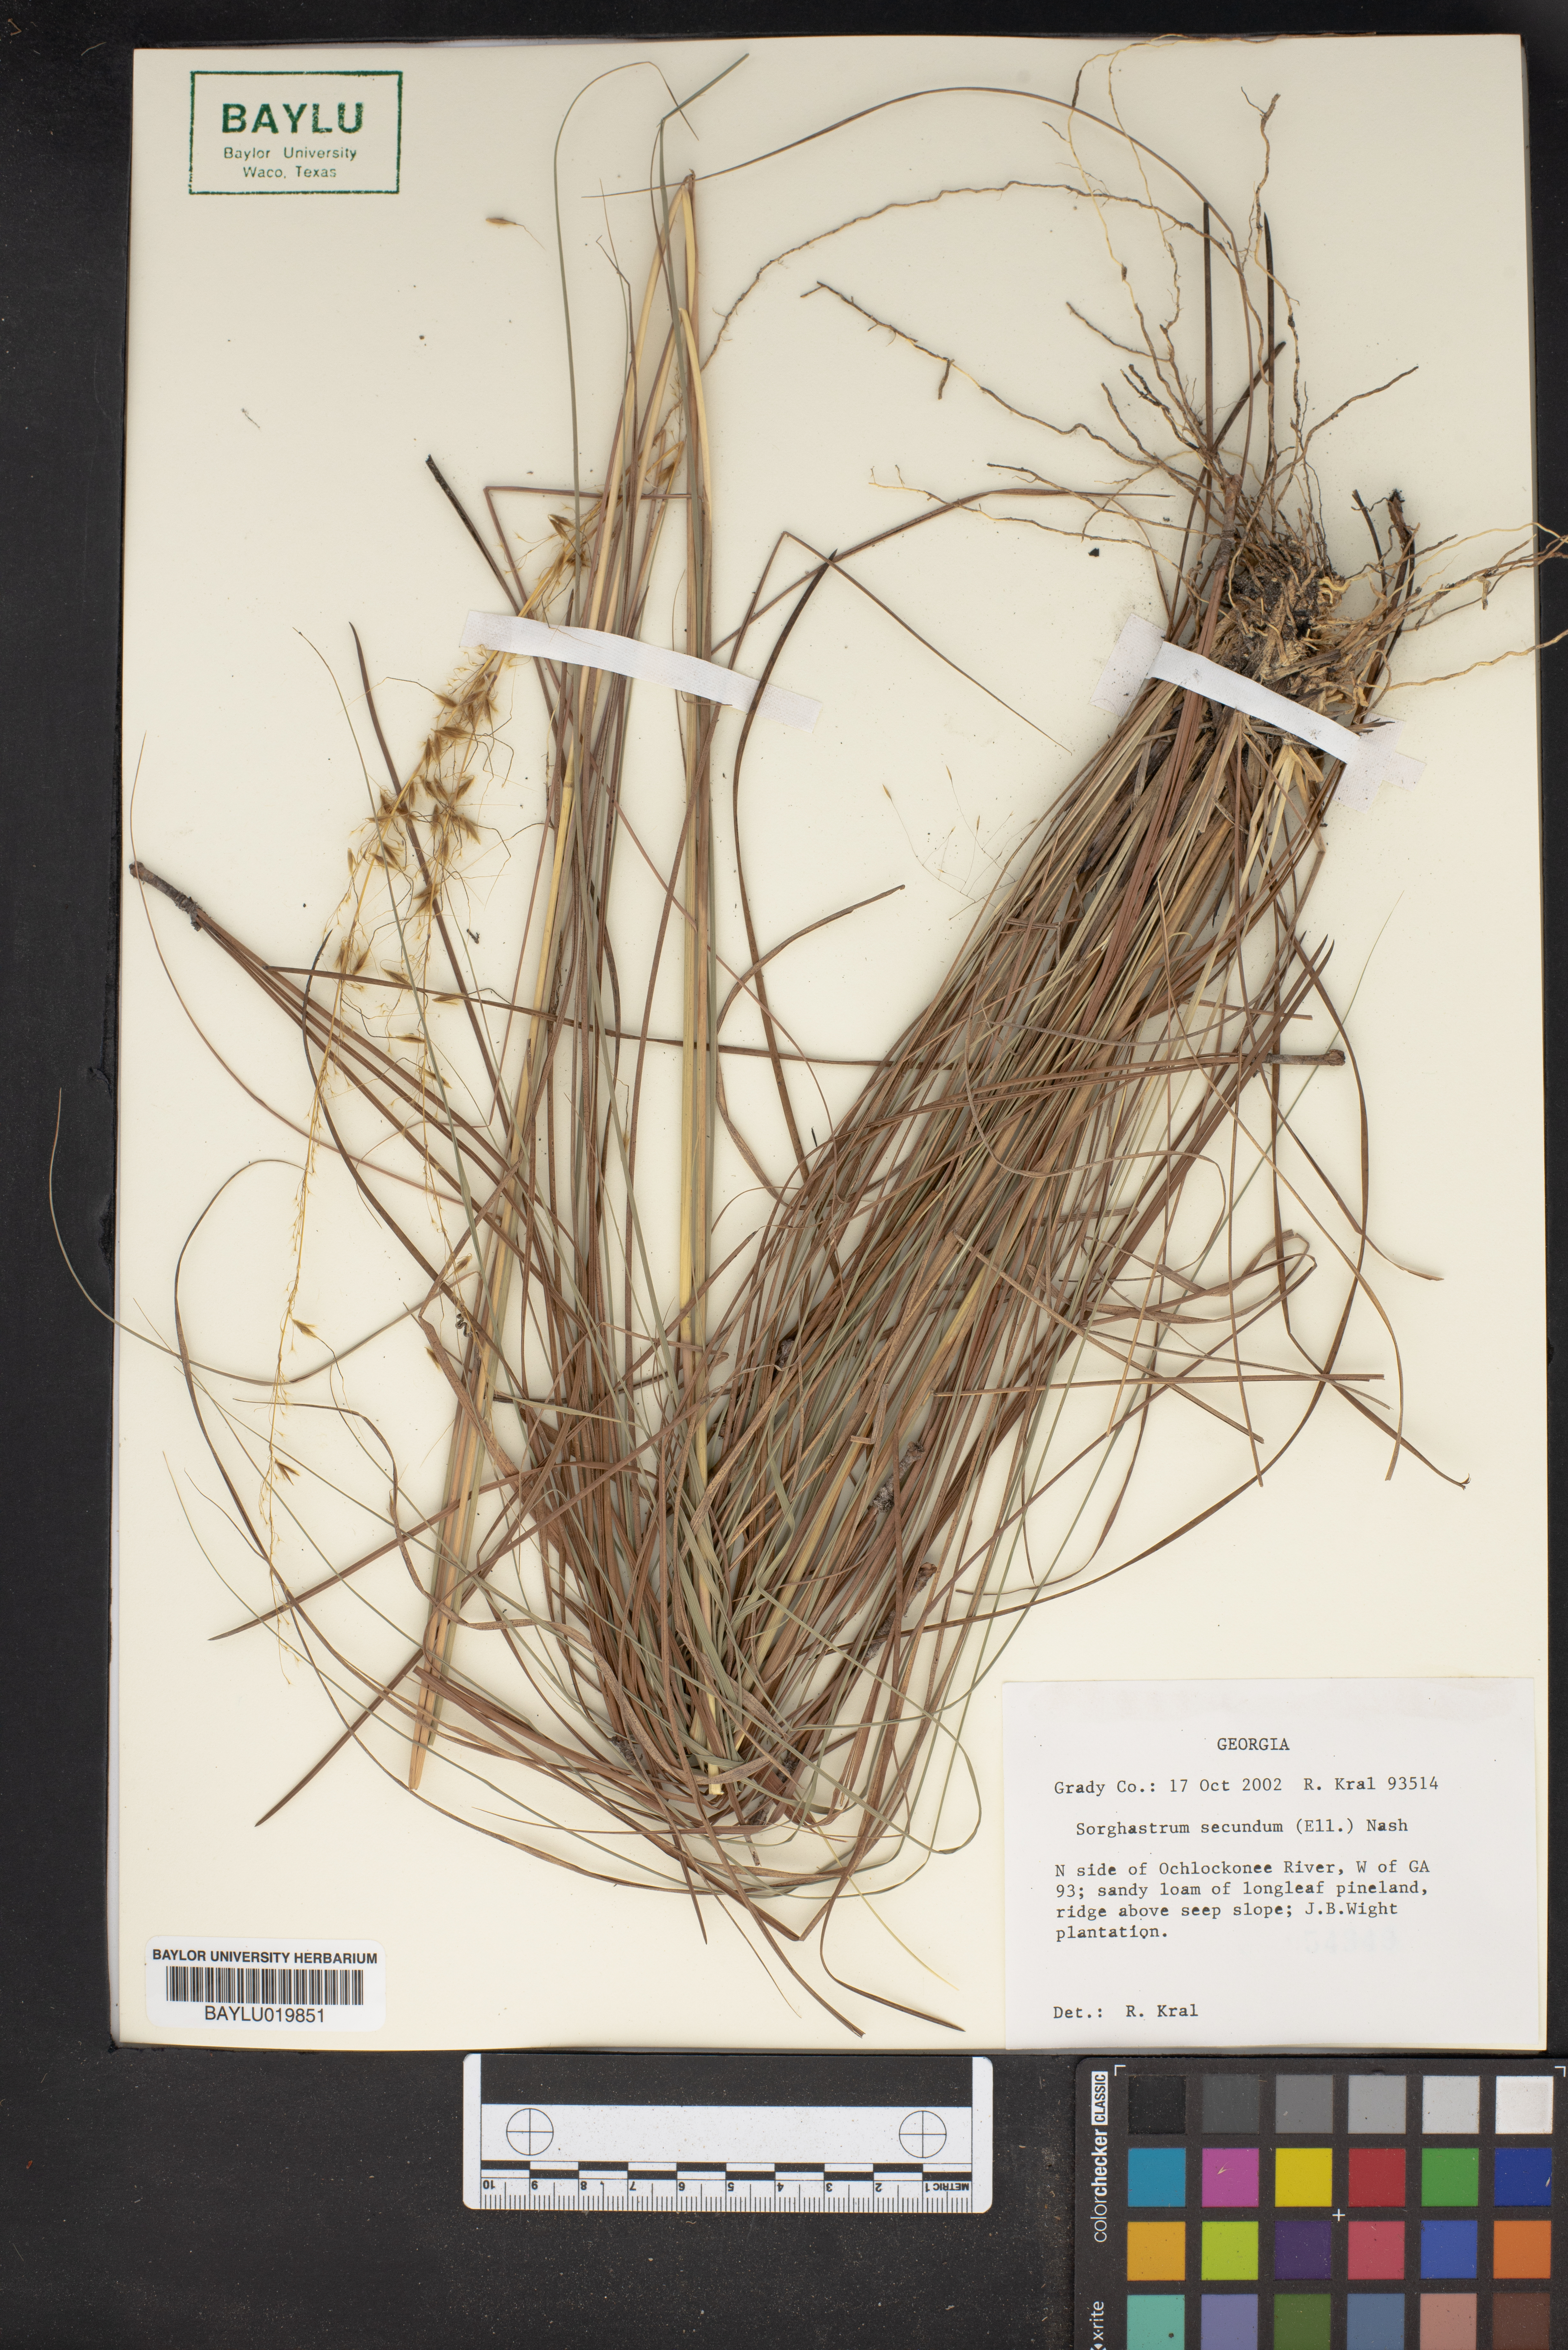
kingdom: Plantae
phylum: Tracheophyta
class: Liliopsida
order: Poales
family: Poaceae
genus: Sorghastrum
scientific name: Sorghastrum secundum
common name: Lopsided indian grass
